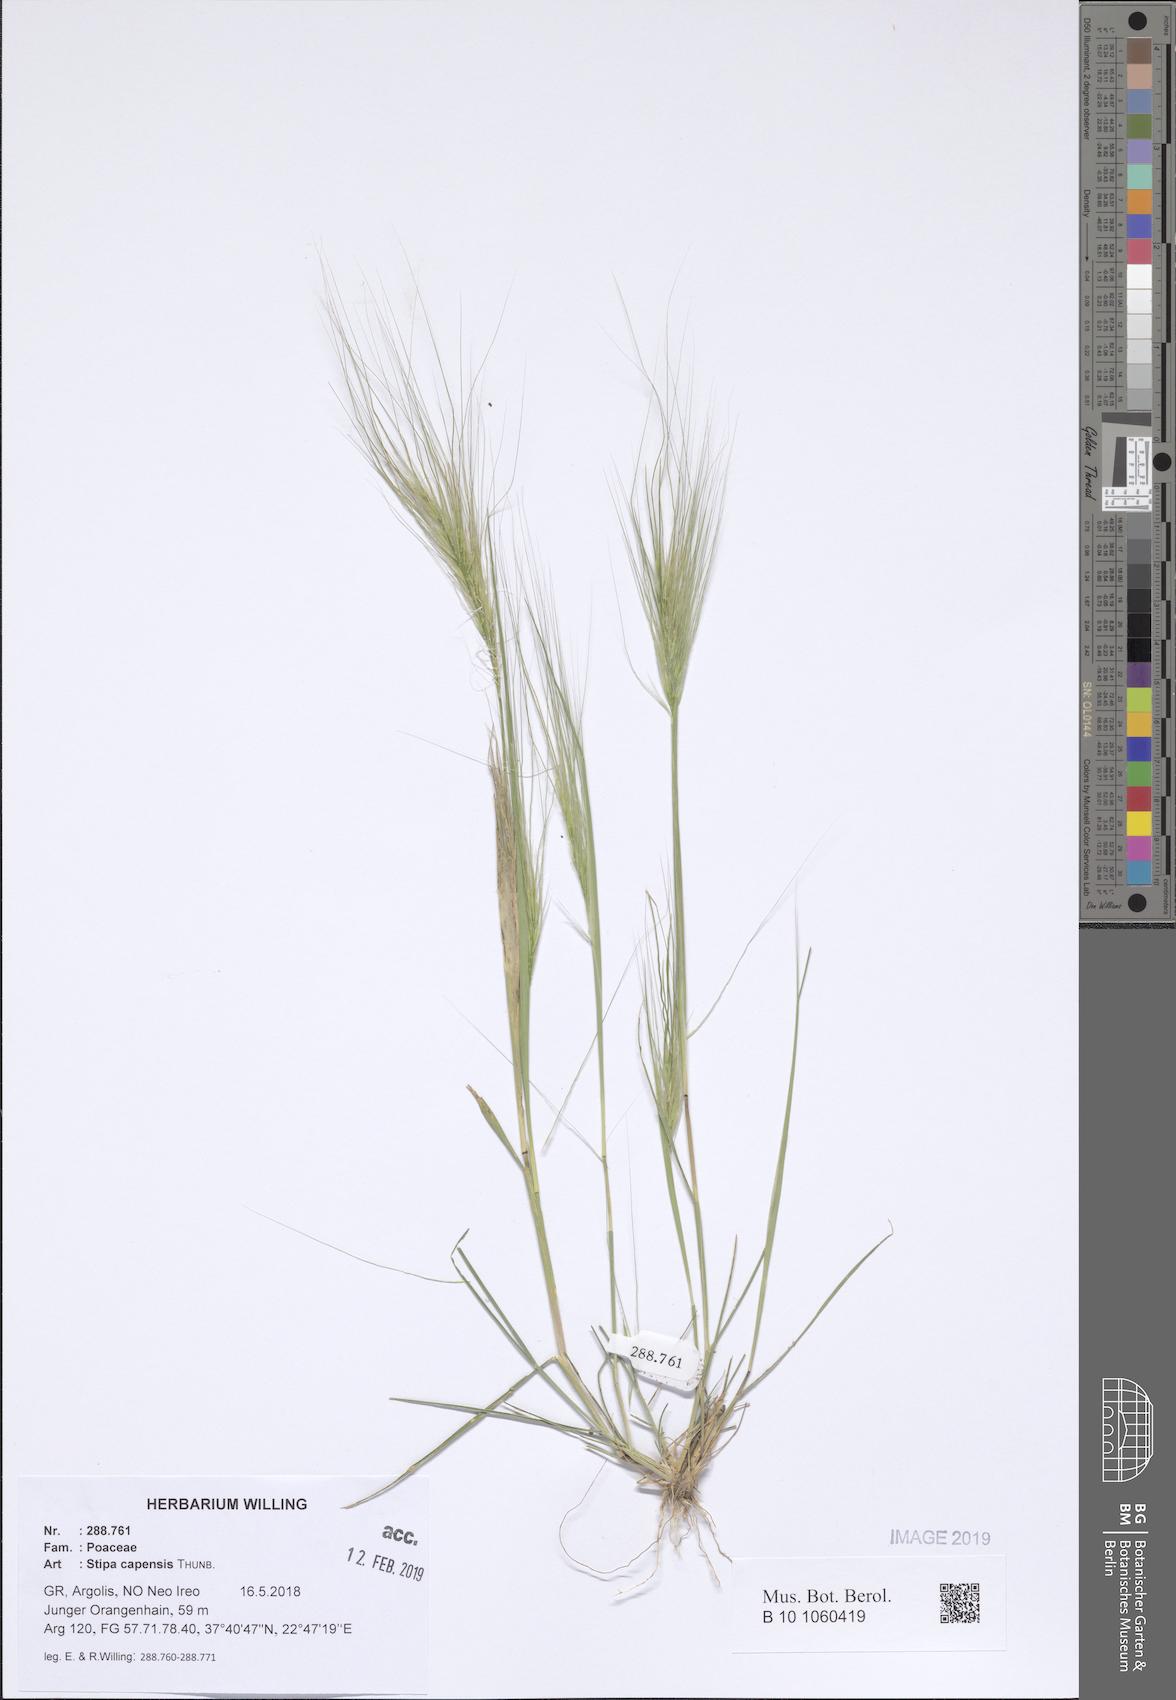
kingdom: Plantae
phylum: Tracheophyta
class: Liliopsida
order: Poales
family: Poaceae
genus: Stipellula
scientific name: Stipellula capensis
